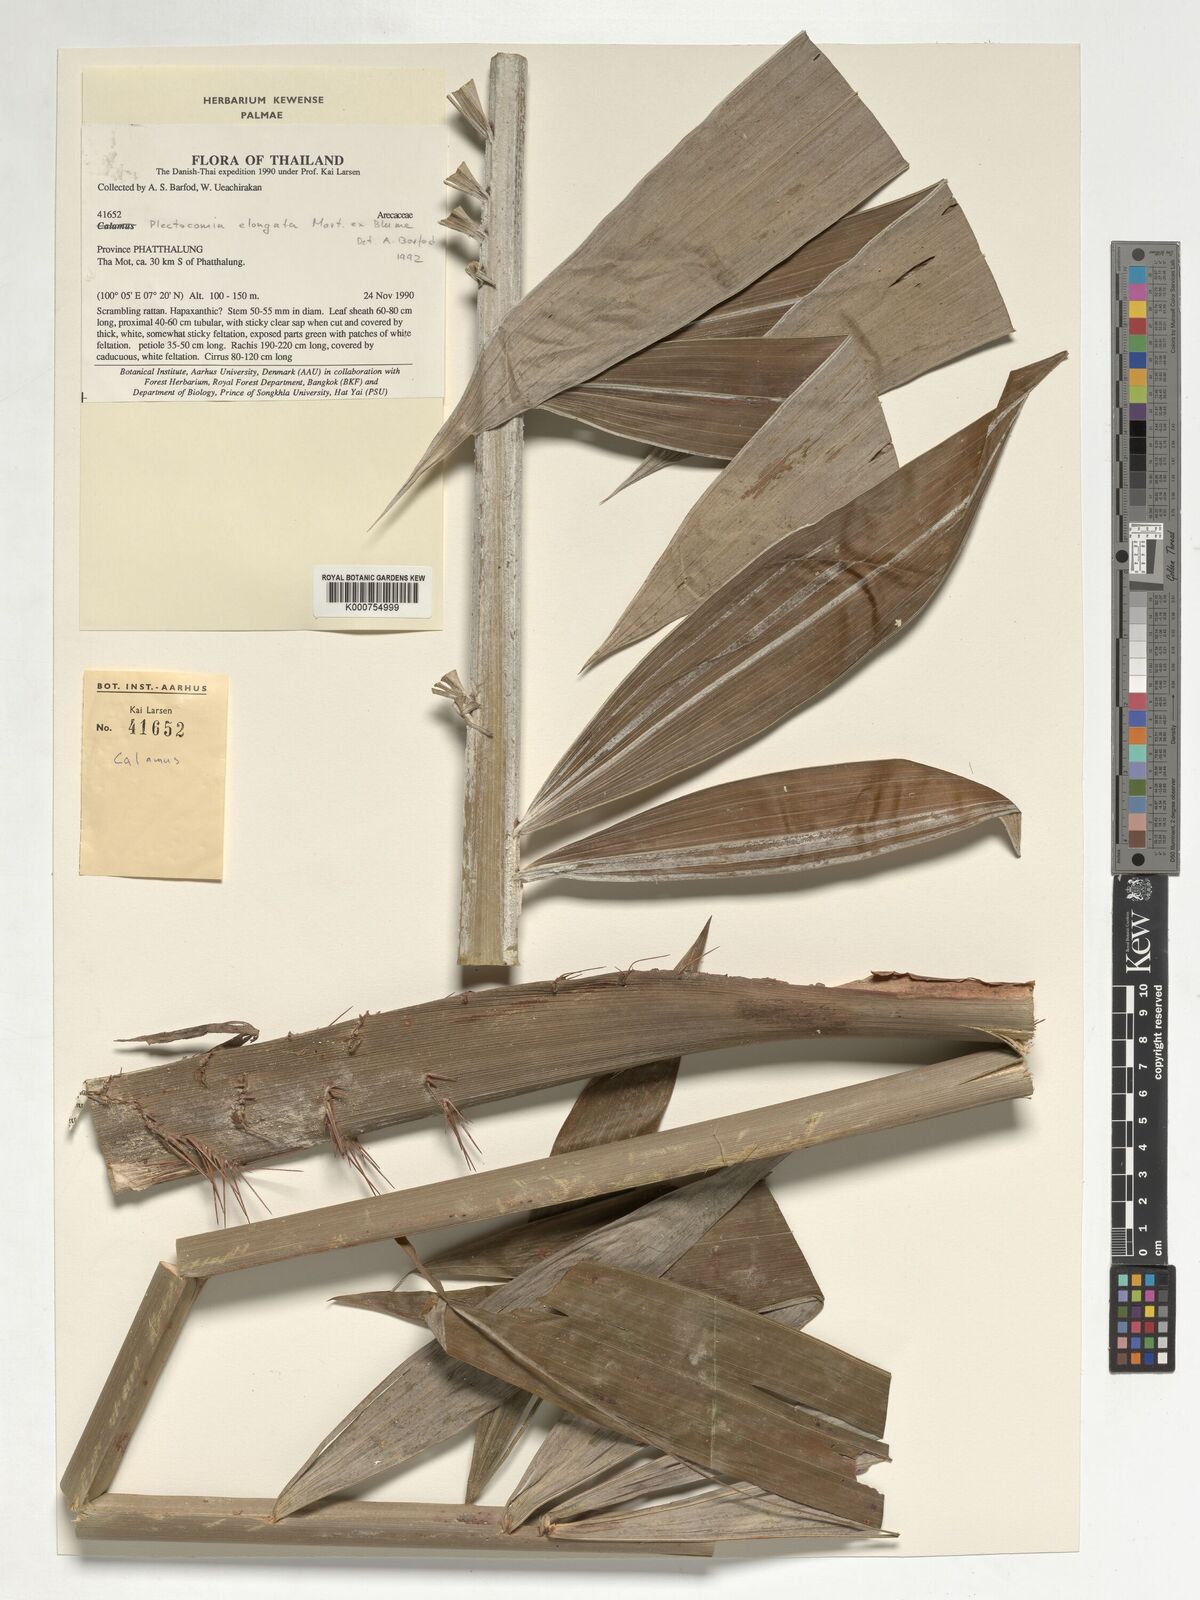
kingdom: Plantae
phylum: Tracheophyta
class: Liliopsida
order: Arecales
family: Arecaceae
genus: Plectocomia
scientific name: Plectocomia elongata
